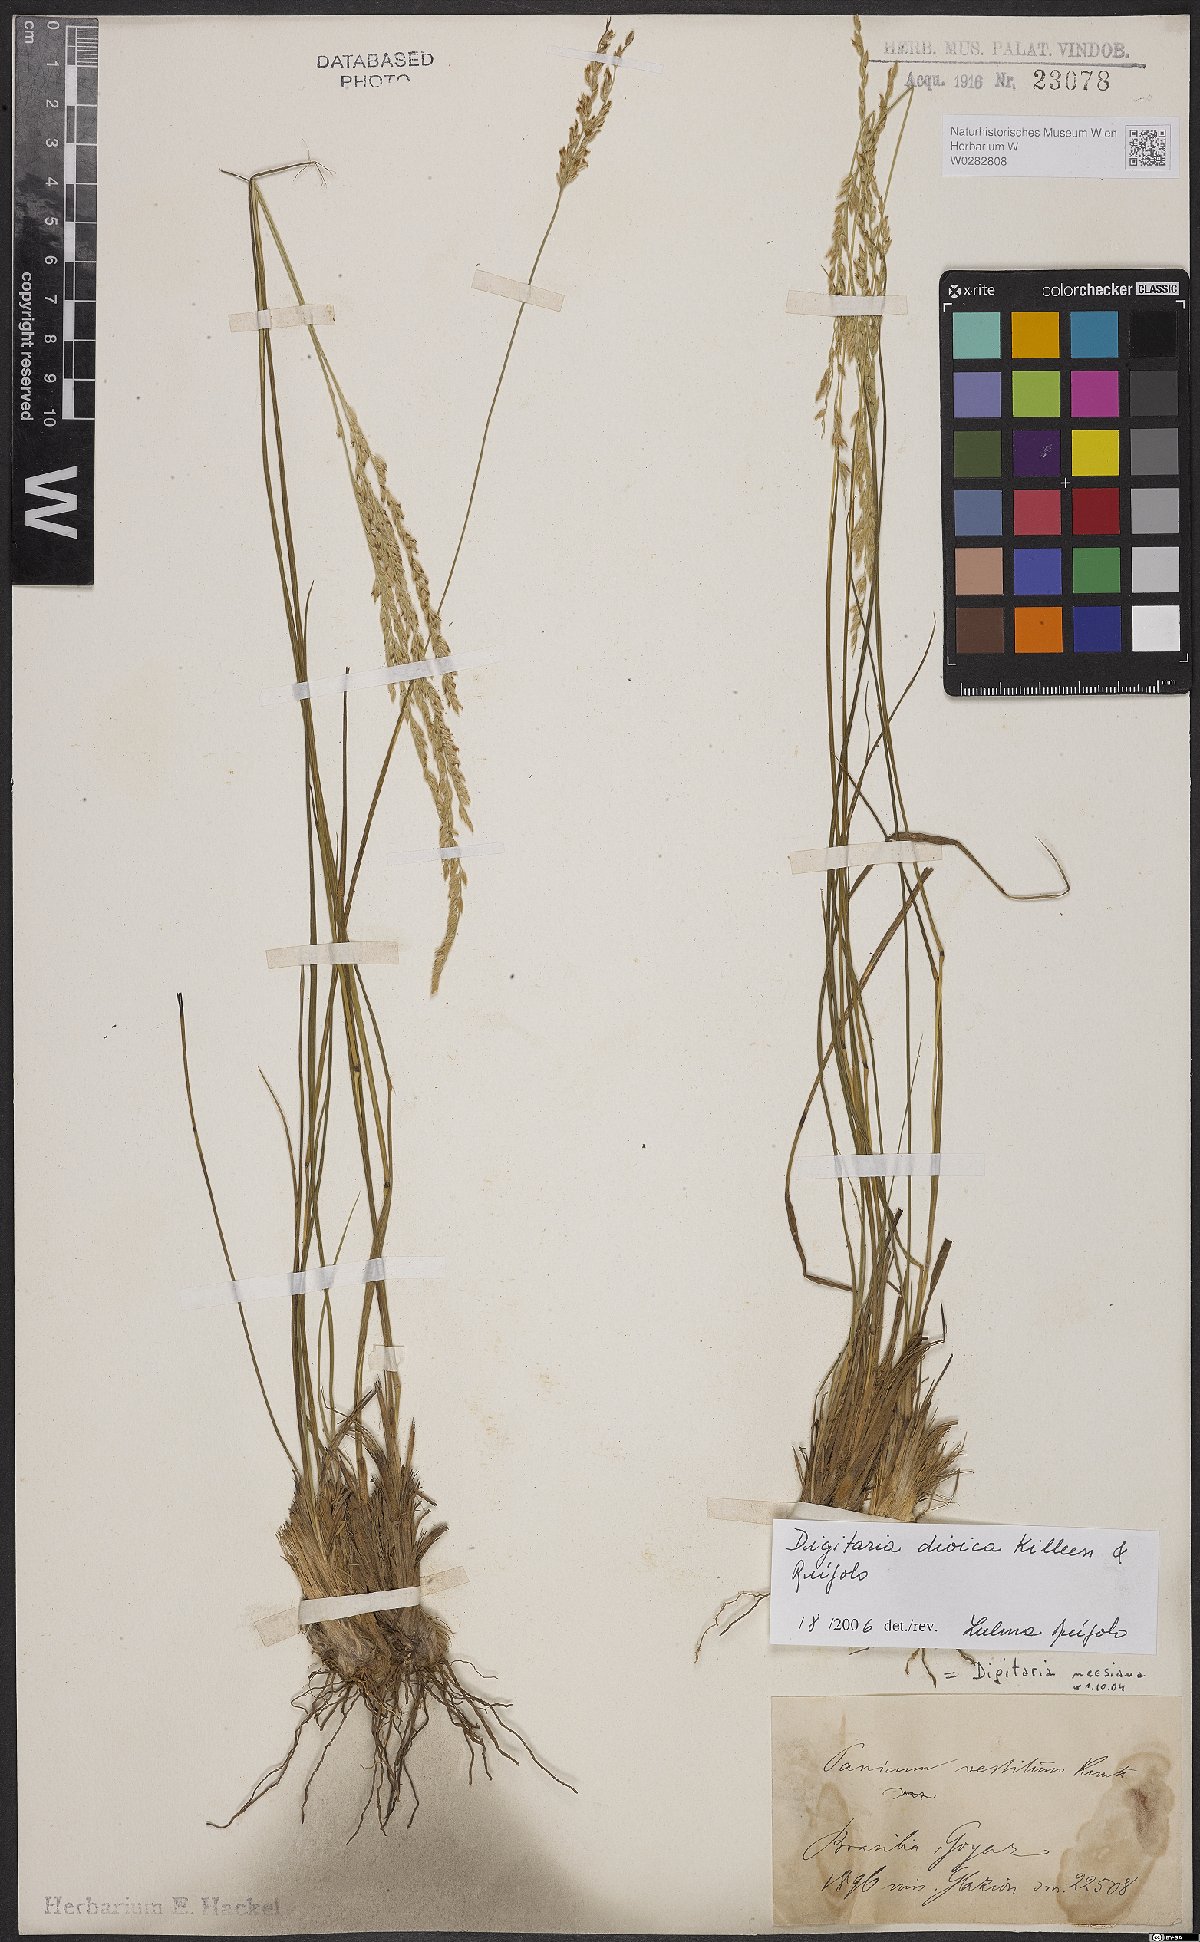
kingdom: Plantae
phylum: Tracheophyta
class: Liliopsida
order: Poales
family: Poaceae
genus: Digitaria
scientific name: Digitaria dioica
